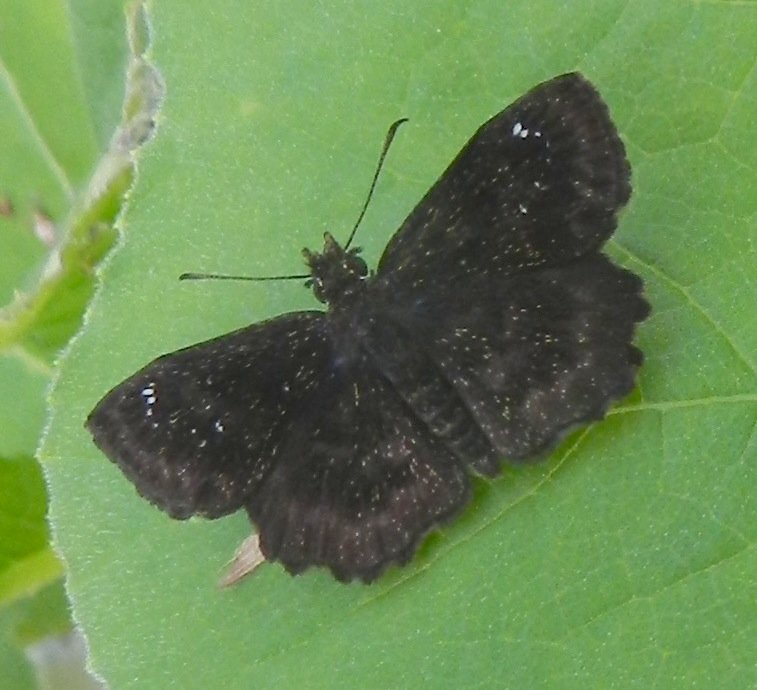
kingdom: Animalia
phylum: Arthropoda
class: Insecta
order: Lepidoptera
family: Hesperiidae
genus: Staphylus
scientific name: Staphylus mazans
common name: Hayhurst's Scallopwing
